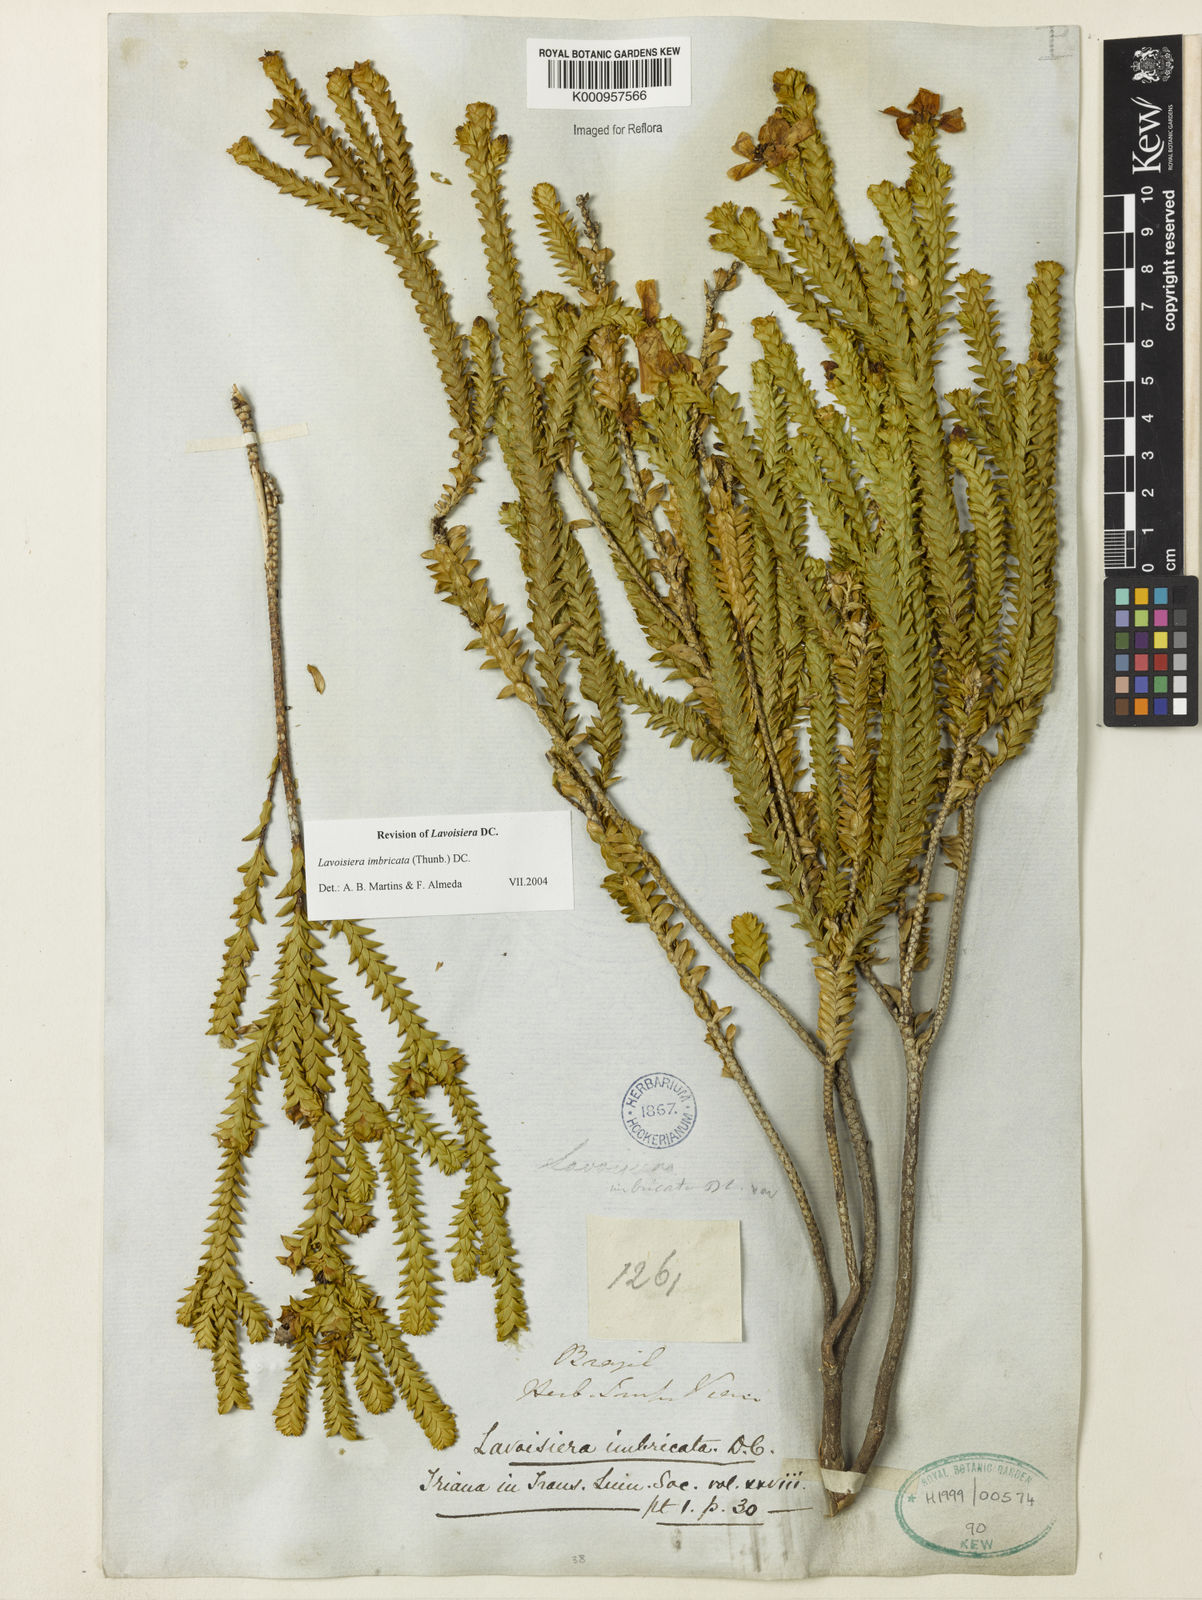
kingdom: Plantae
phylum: Tracheophyta
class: Magnoliopsida
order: Myrtales
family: Melastomataceae
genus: Microlicia
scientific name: Microlicia cataphracta
